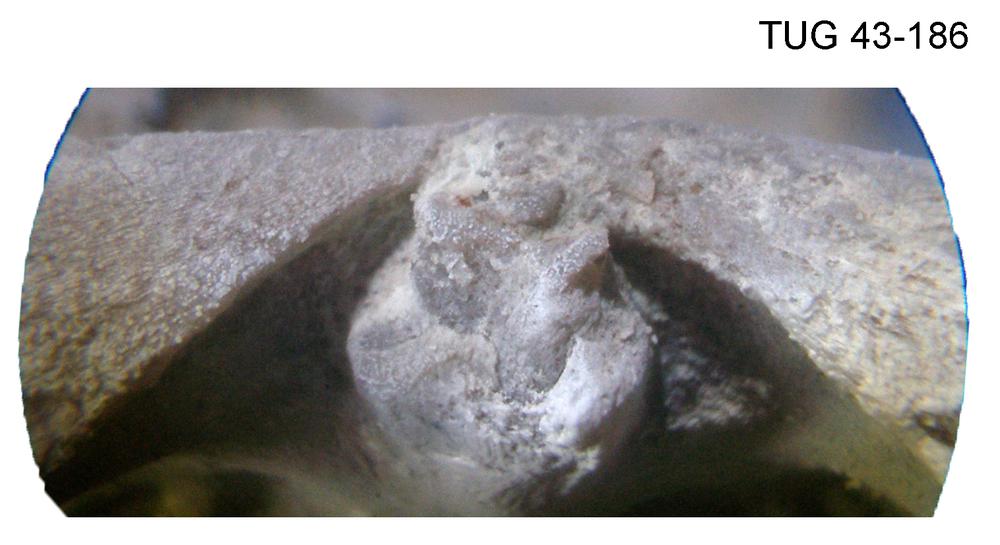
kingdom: Animalia
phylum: Brachiopoda
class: Rhynchonellata
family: Orthidae
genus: Cyrtonotella
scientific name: Cyrtonotella Orthis kuckersiana
